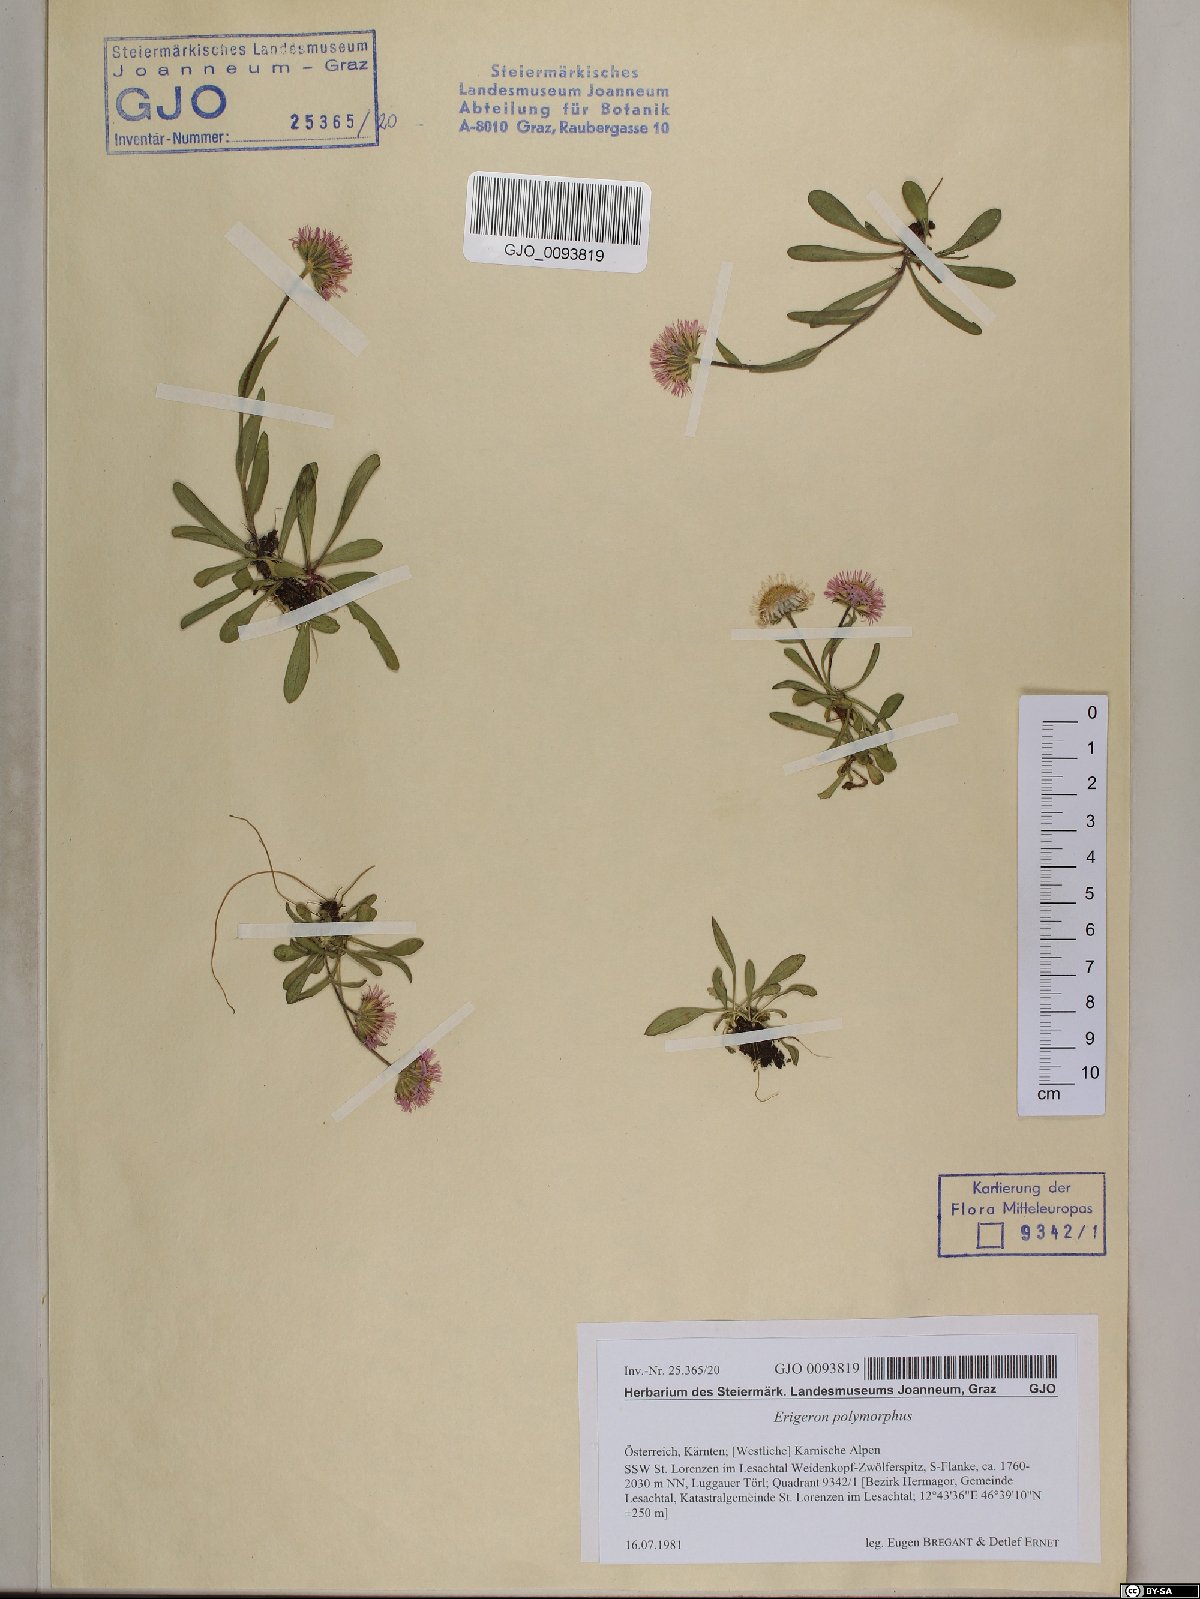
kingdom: Plantae
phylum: Tracheophyta
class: Magnoliopsida
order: Asterales
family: Asteraceae
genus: Erigeron
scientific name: Erigeron alpinus
